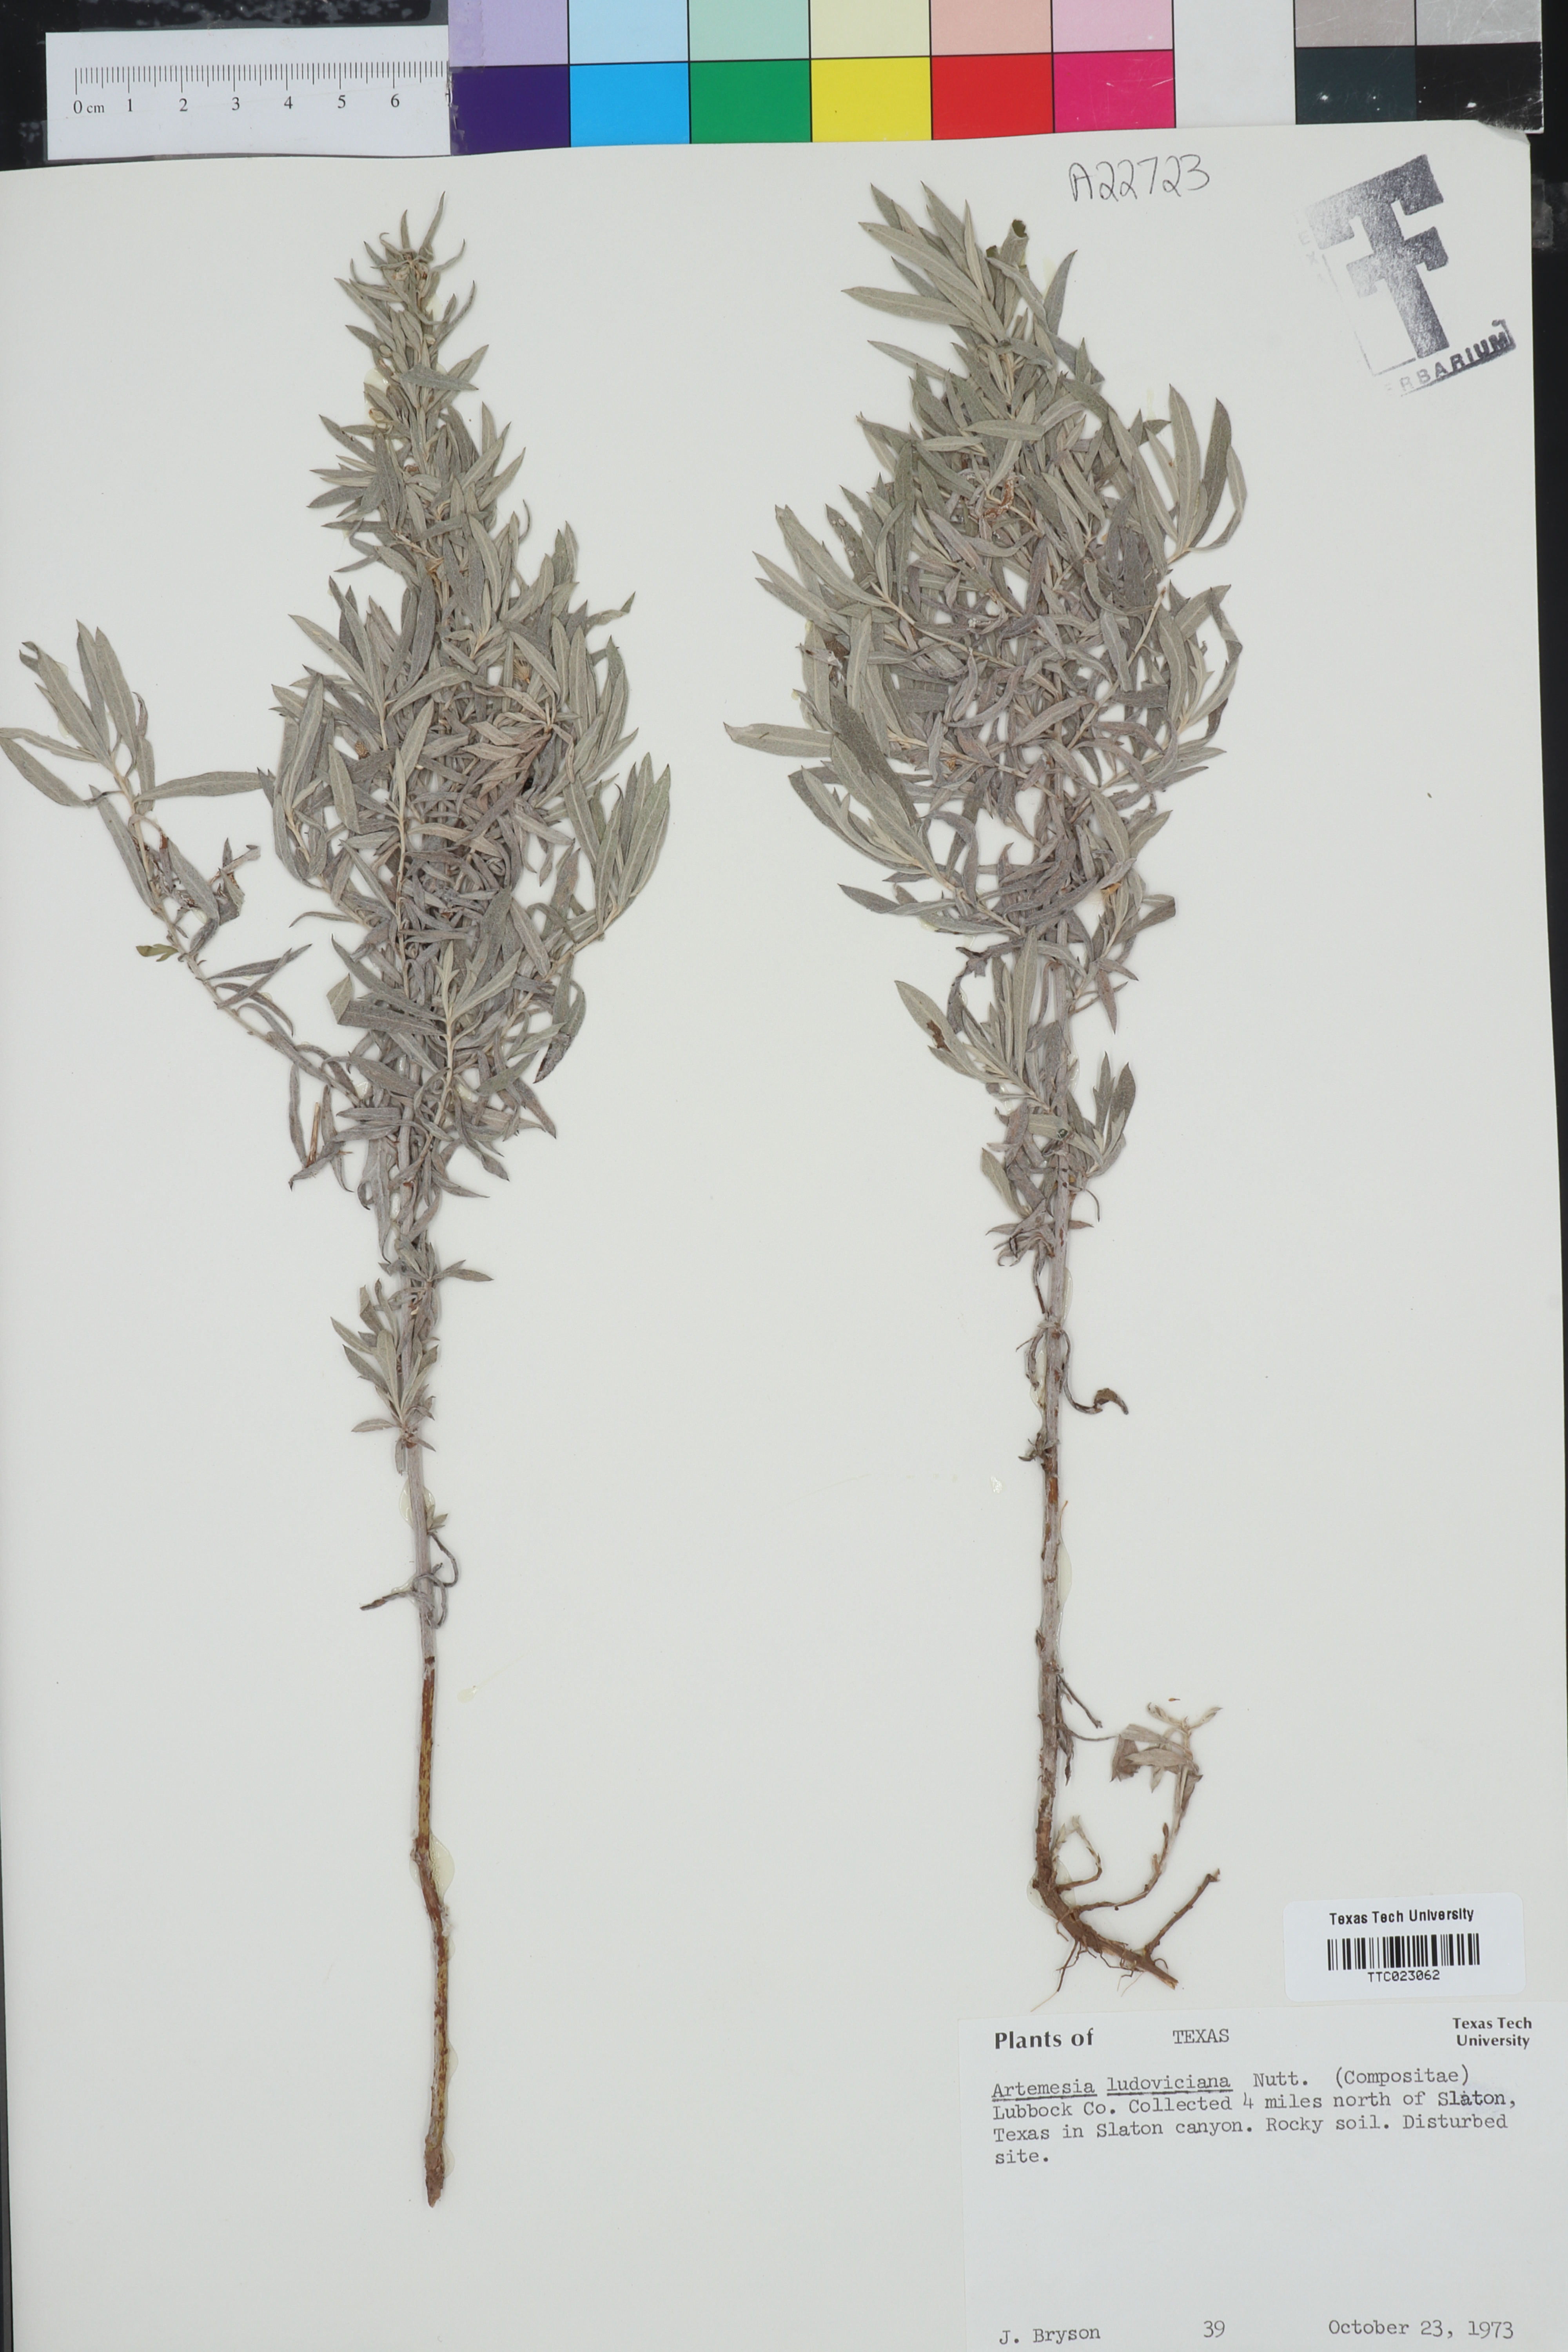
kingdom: Plantae
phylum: Tracheophyta
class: Magnoliopsida
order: Asterales
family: Asteraceae
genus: Artemisia
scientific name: Artemisia ludoviciana
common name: Western mugwort
